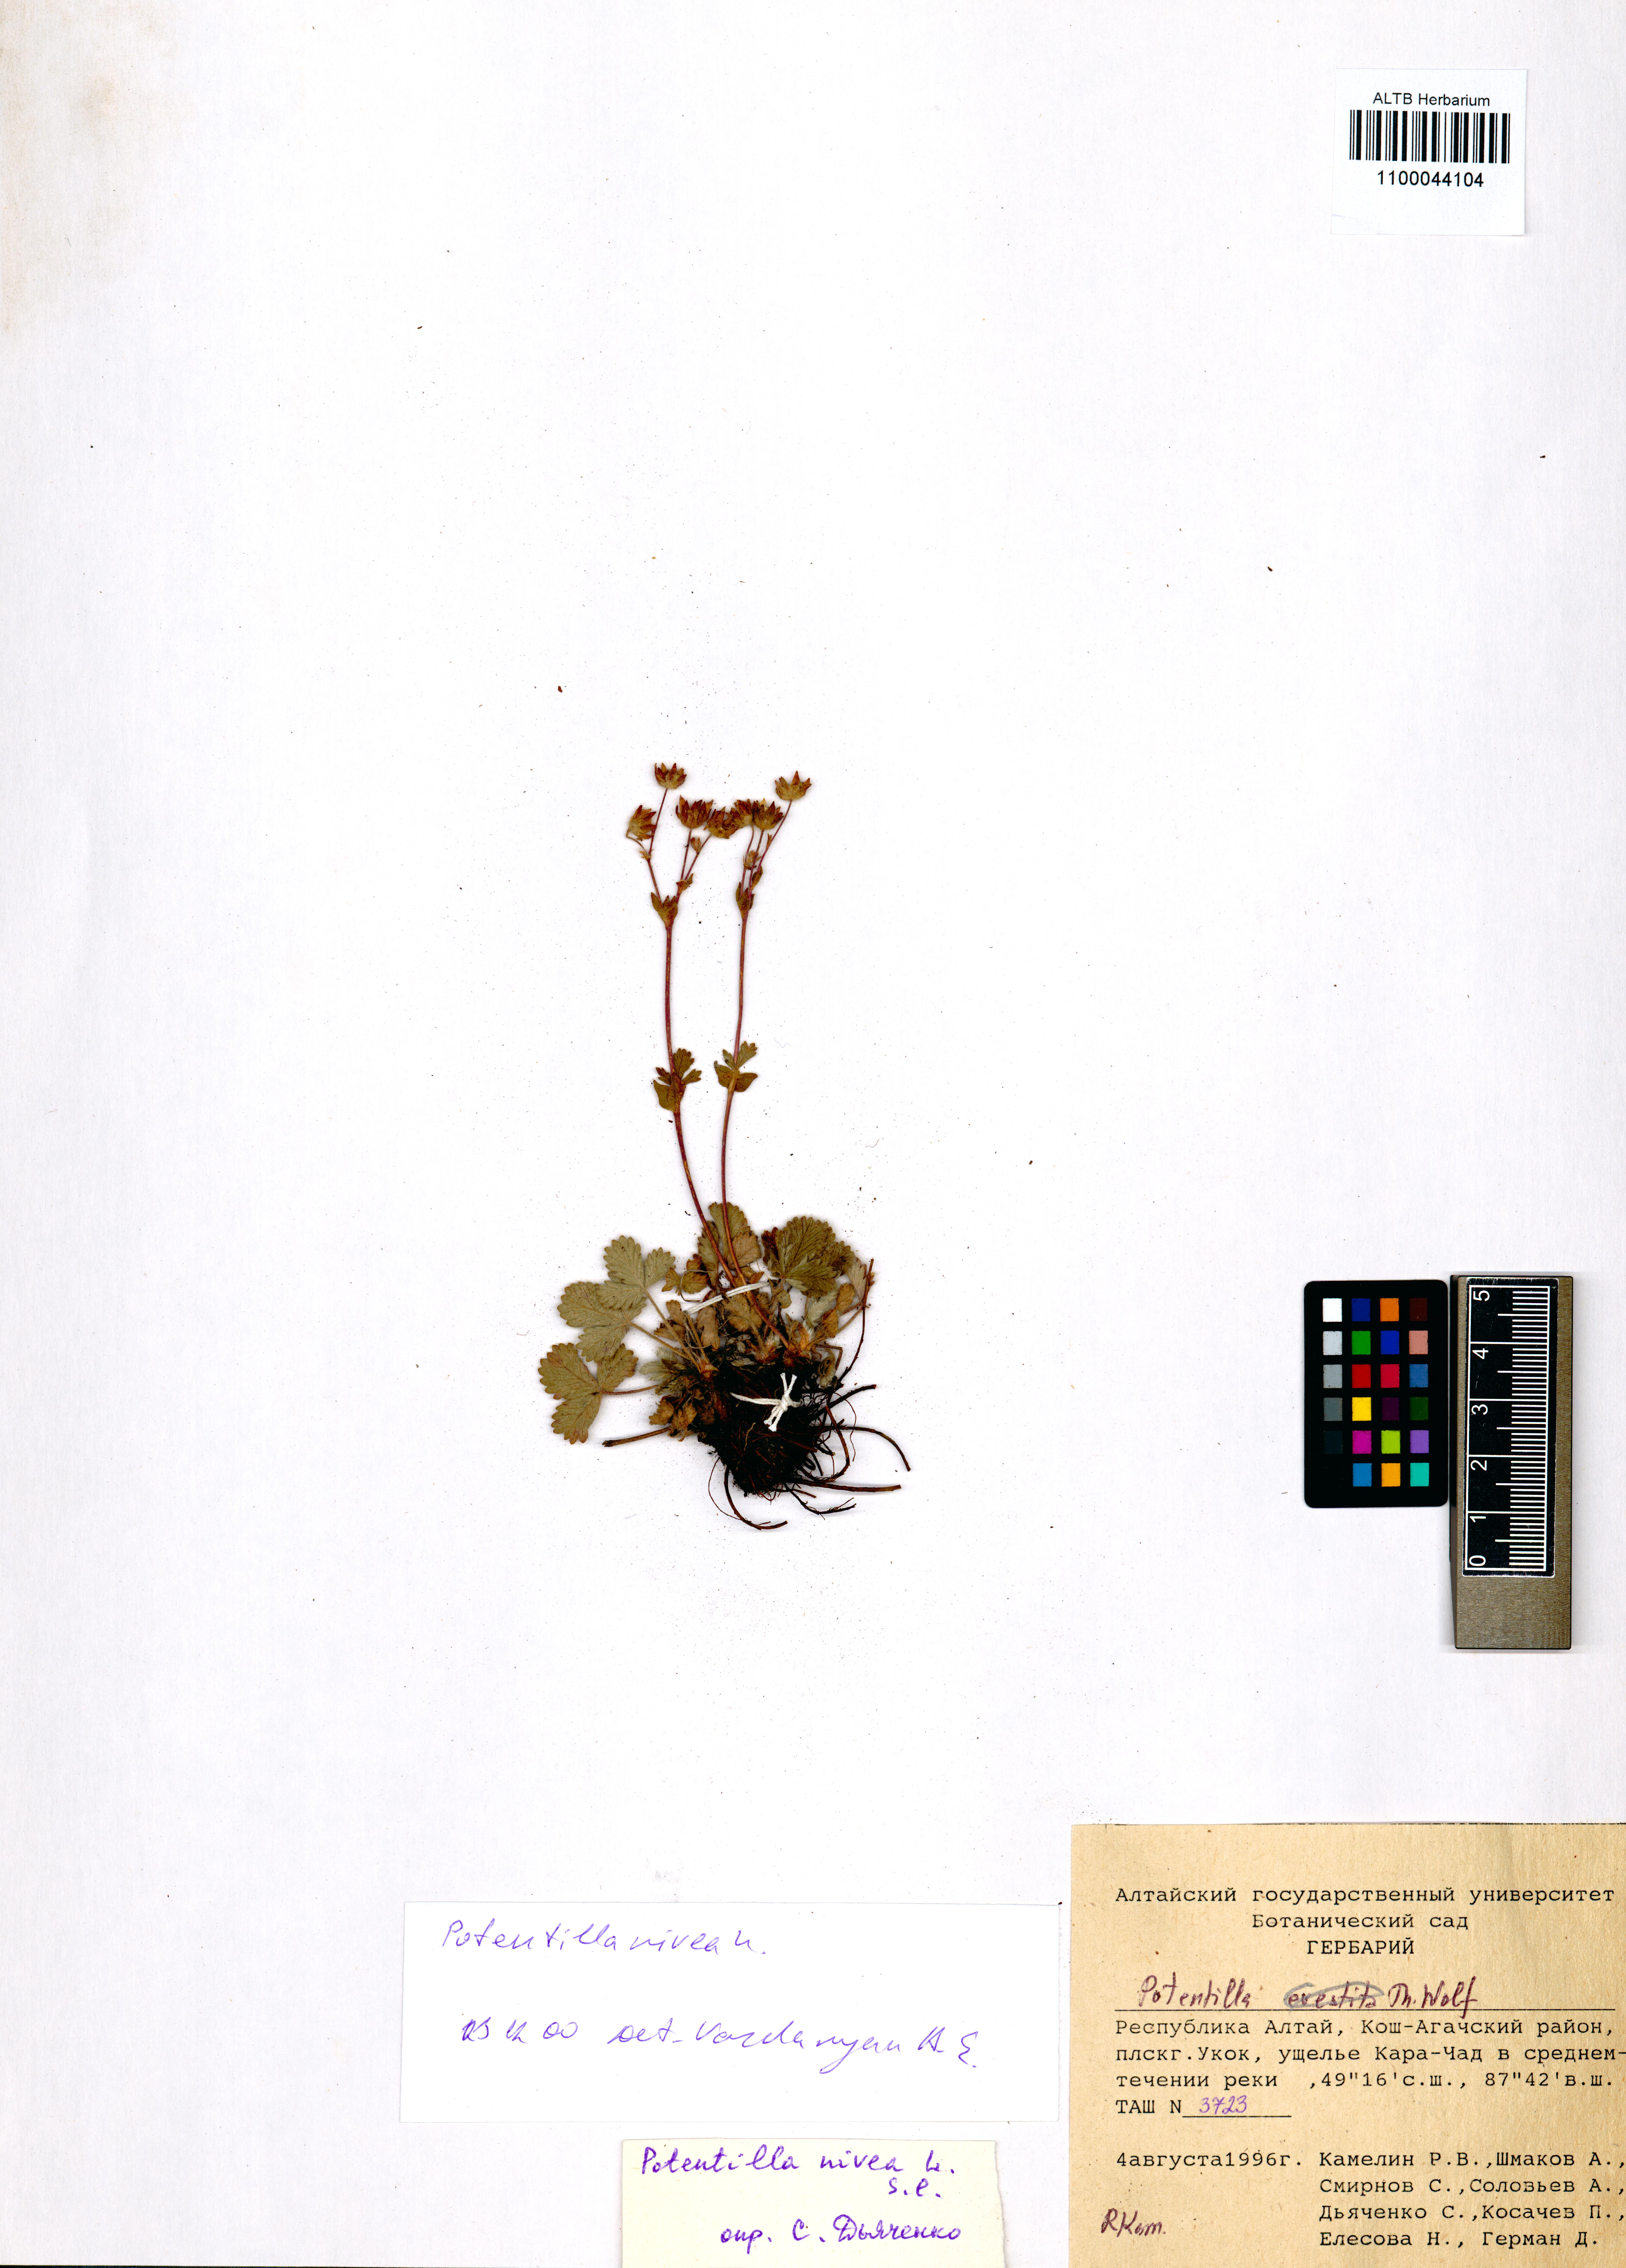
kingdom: Plantae
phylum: Tracheophyta
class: Magnoliopsida
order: Rosales
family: Rosaceae
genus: Potentilla
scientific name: Potentilla evestita
